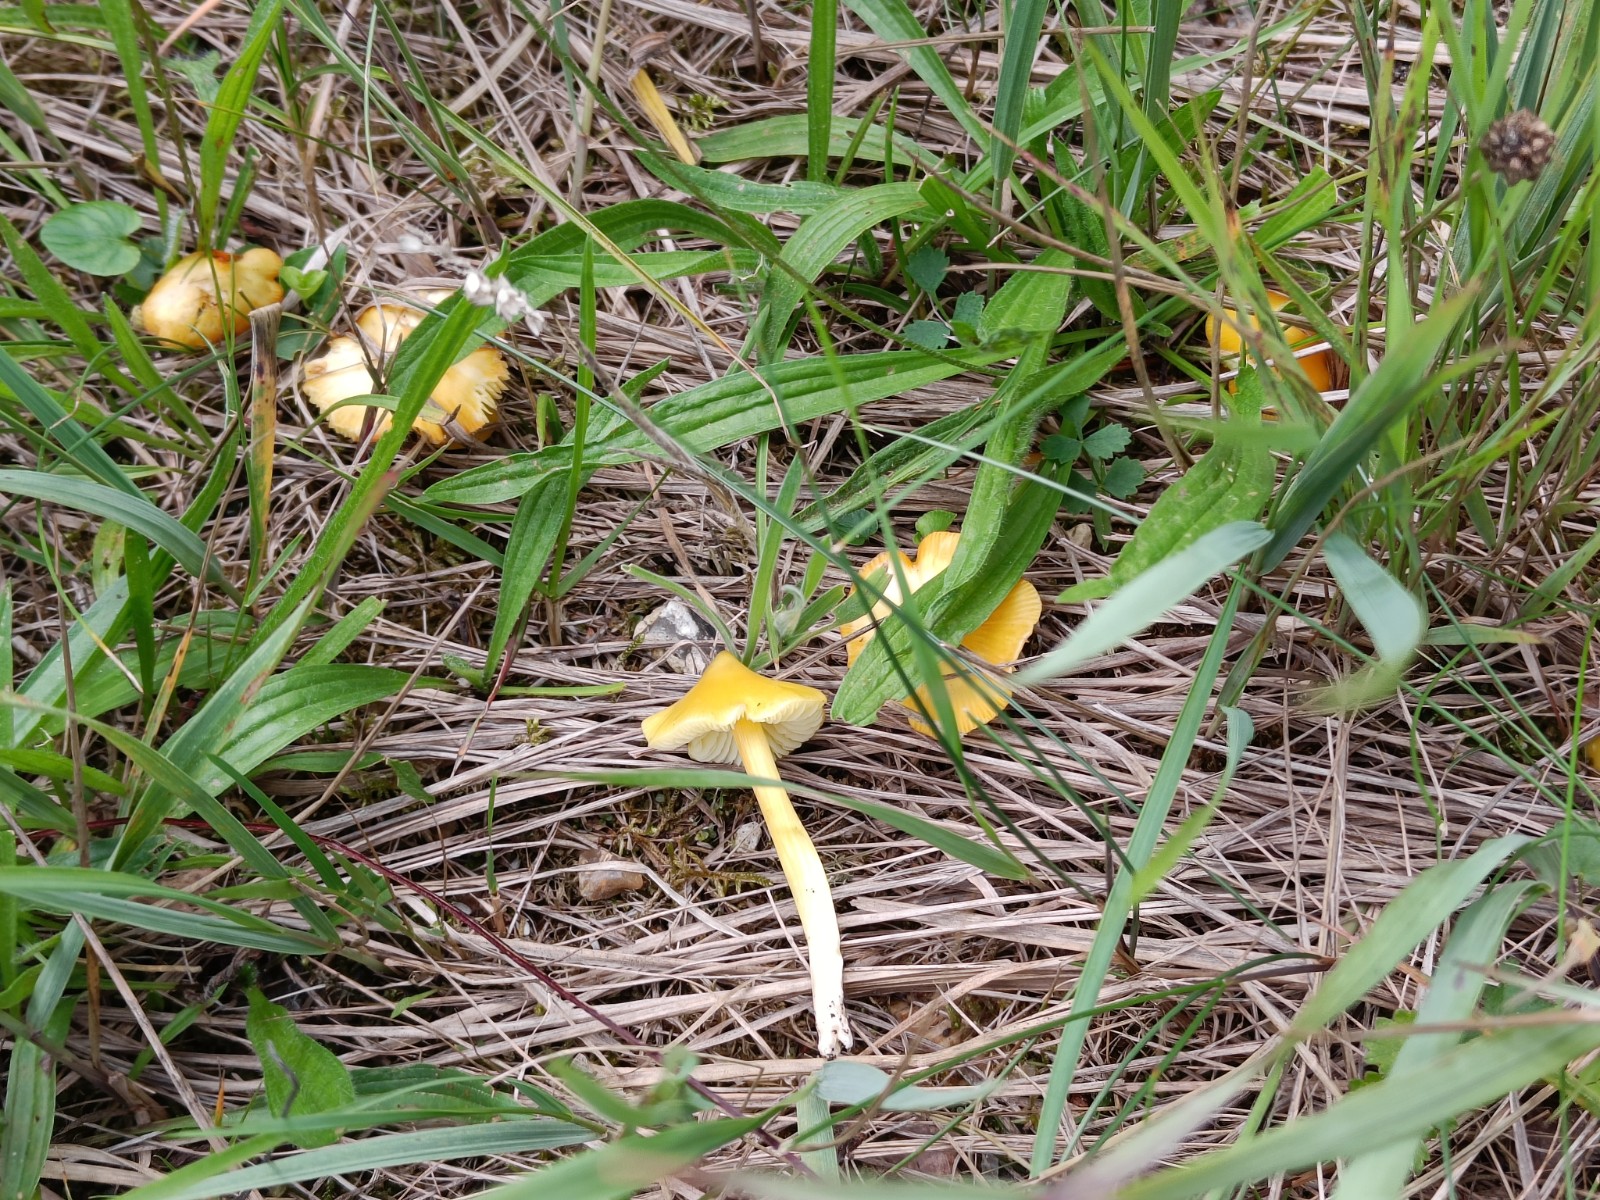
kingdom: Fungi
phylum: Basidiomycota
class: Agaricomycetes
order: Agaricales
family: Hygrophoraceae
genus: Hygrocybe
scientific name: Hygrocybe
